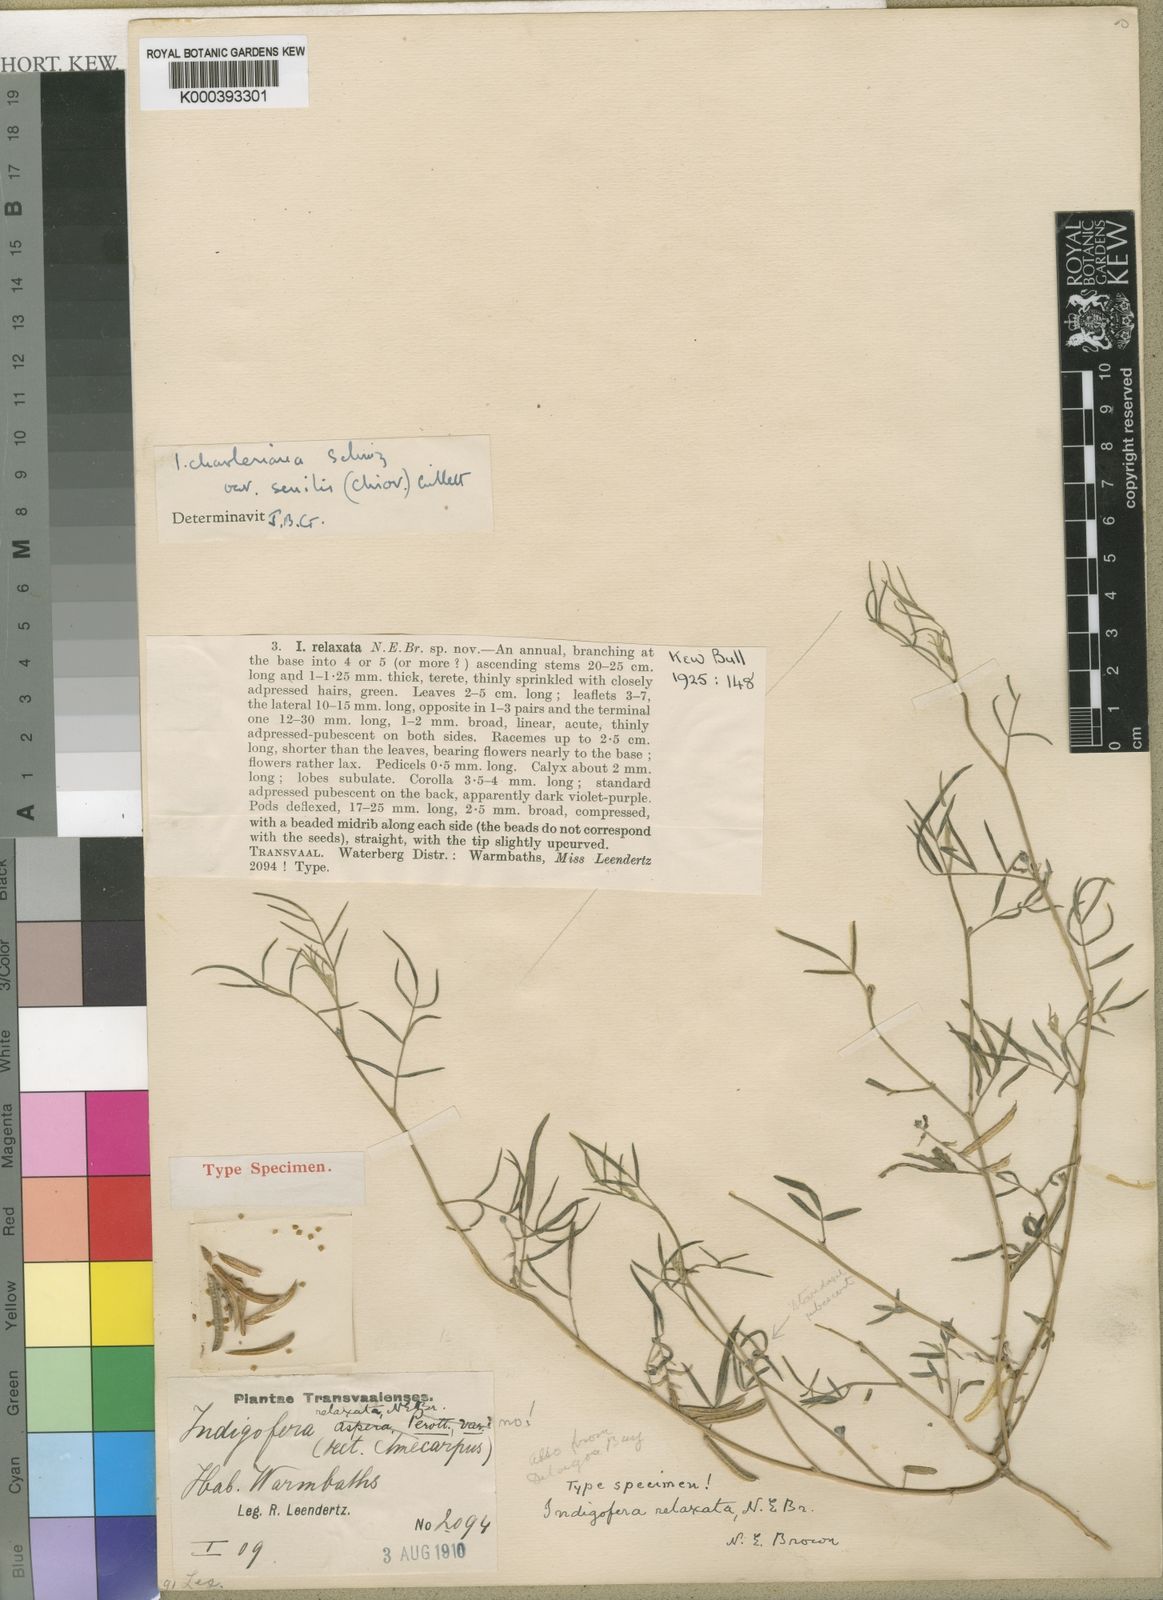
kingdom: Plantae
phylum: Tracheophyta
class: Magnoliopsida
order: Fabales
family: Fabaceae
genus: Indigofera
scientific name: Indigofera charlieriana
